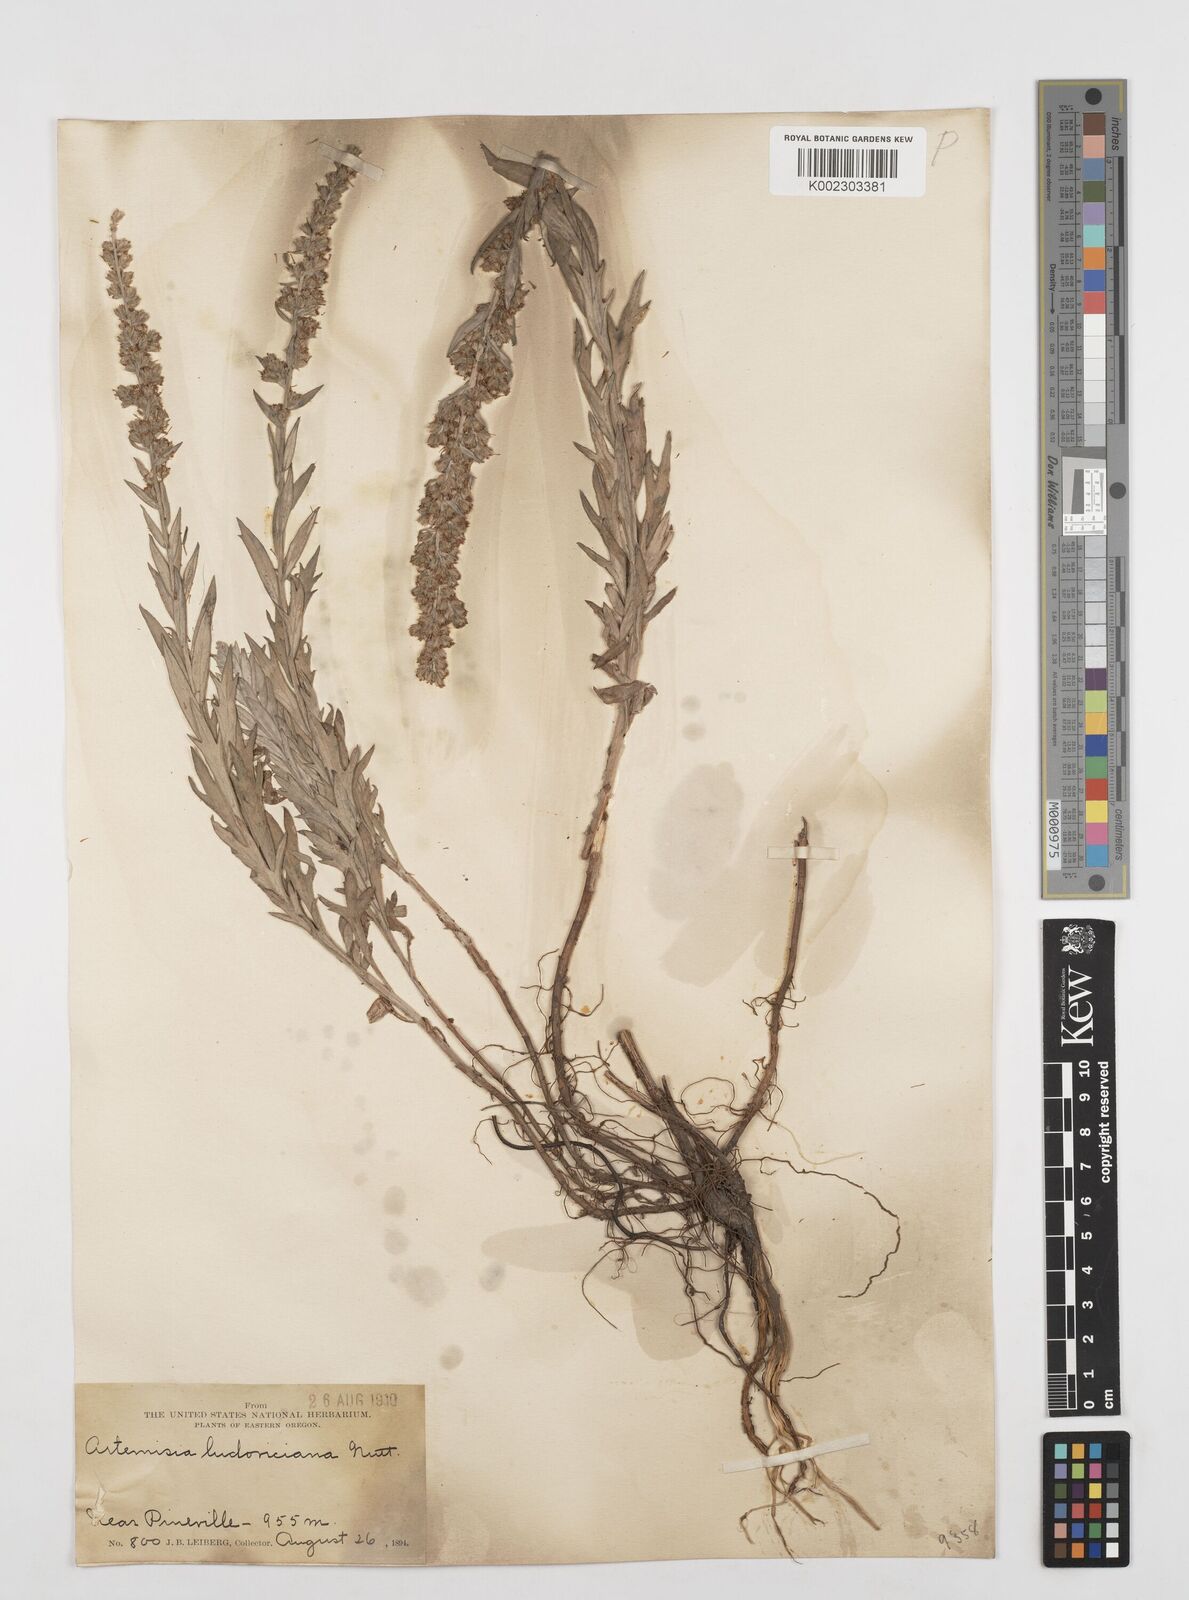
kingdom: Plantae
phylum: Tracheophyta
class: Magnoliopsida
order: Asterales
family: Asteraceae
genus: Artemisia
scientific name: Artemisia
